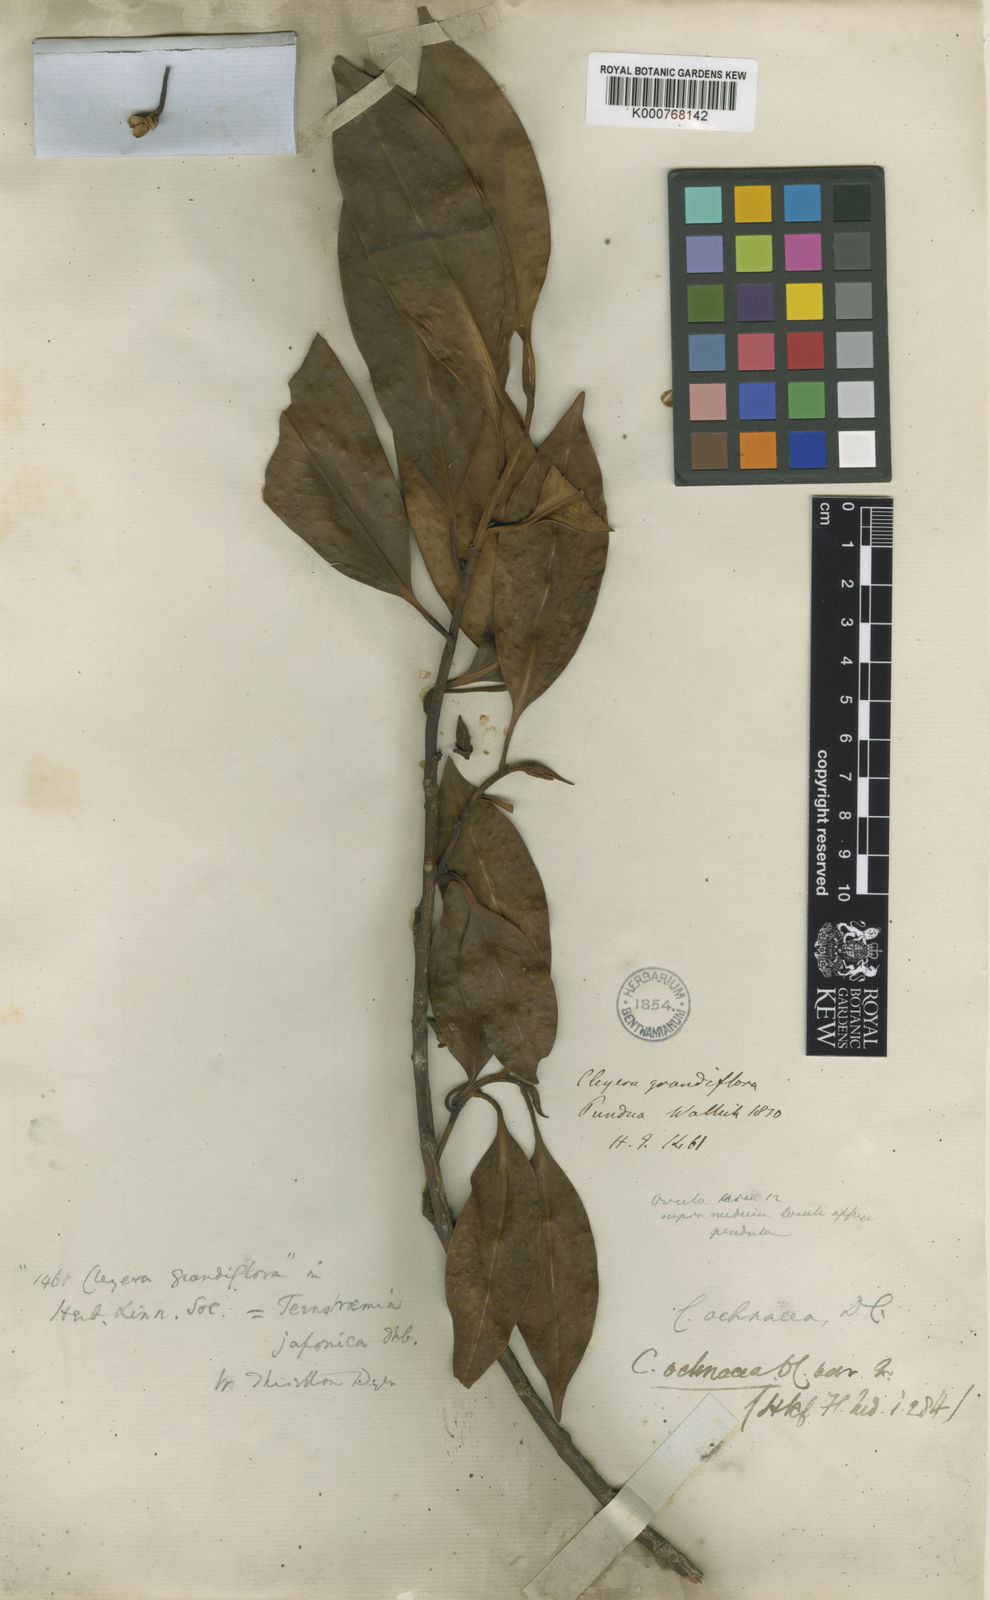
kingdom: Plantae
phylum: Tracheophyta
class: Magnoliopsida
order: Ericales
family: Pentaphylacaceae
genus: Cleyera
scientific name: Cleyera japonica
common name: Sakaki
